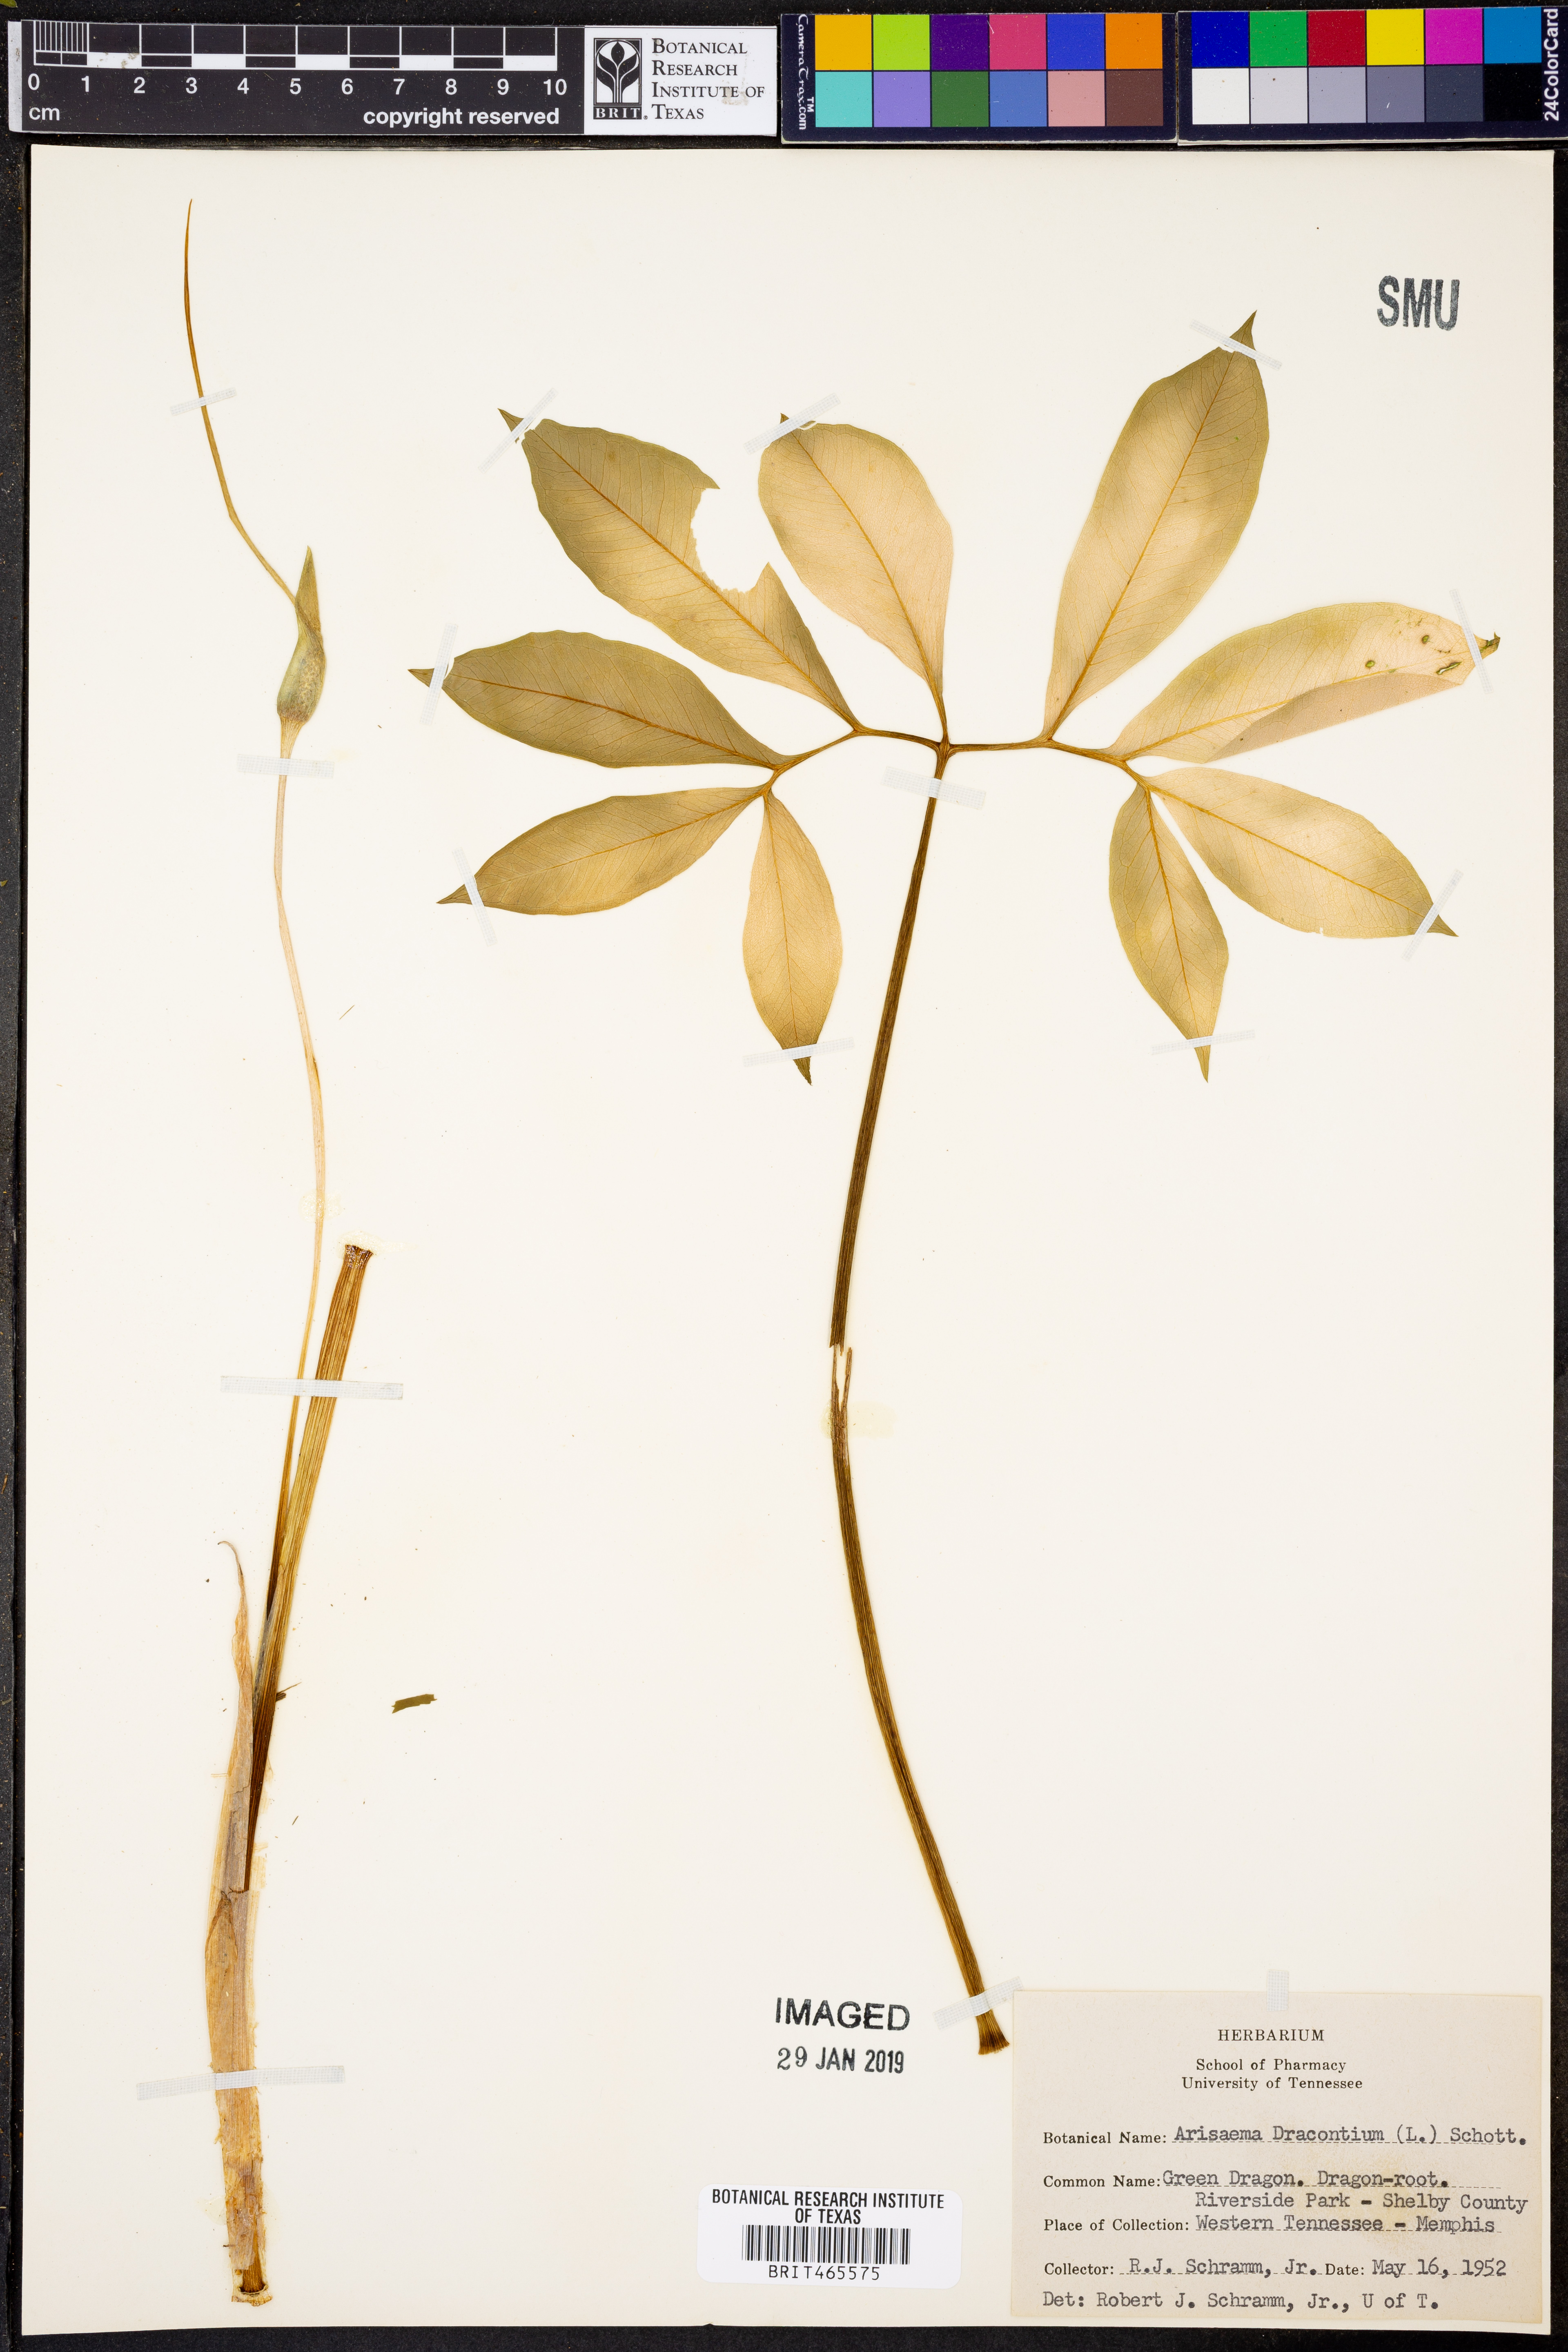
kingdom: Plantae
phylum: Tracheophyta
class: Liliopsida
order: Alismatales
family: Araceae
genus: Arisaema
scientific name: Arisaema dracontium
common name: Dragon-arum
